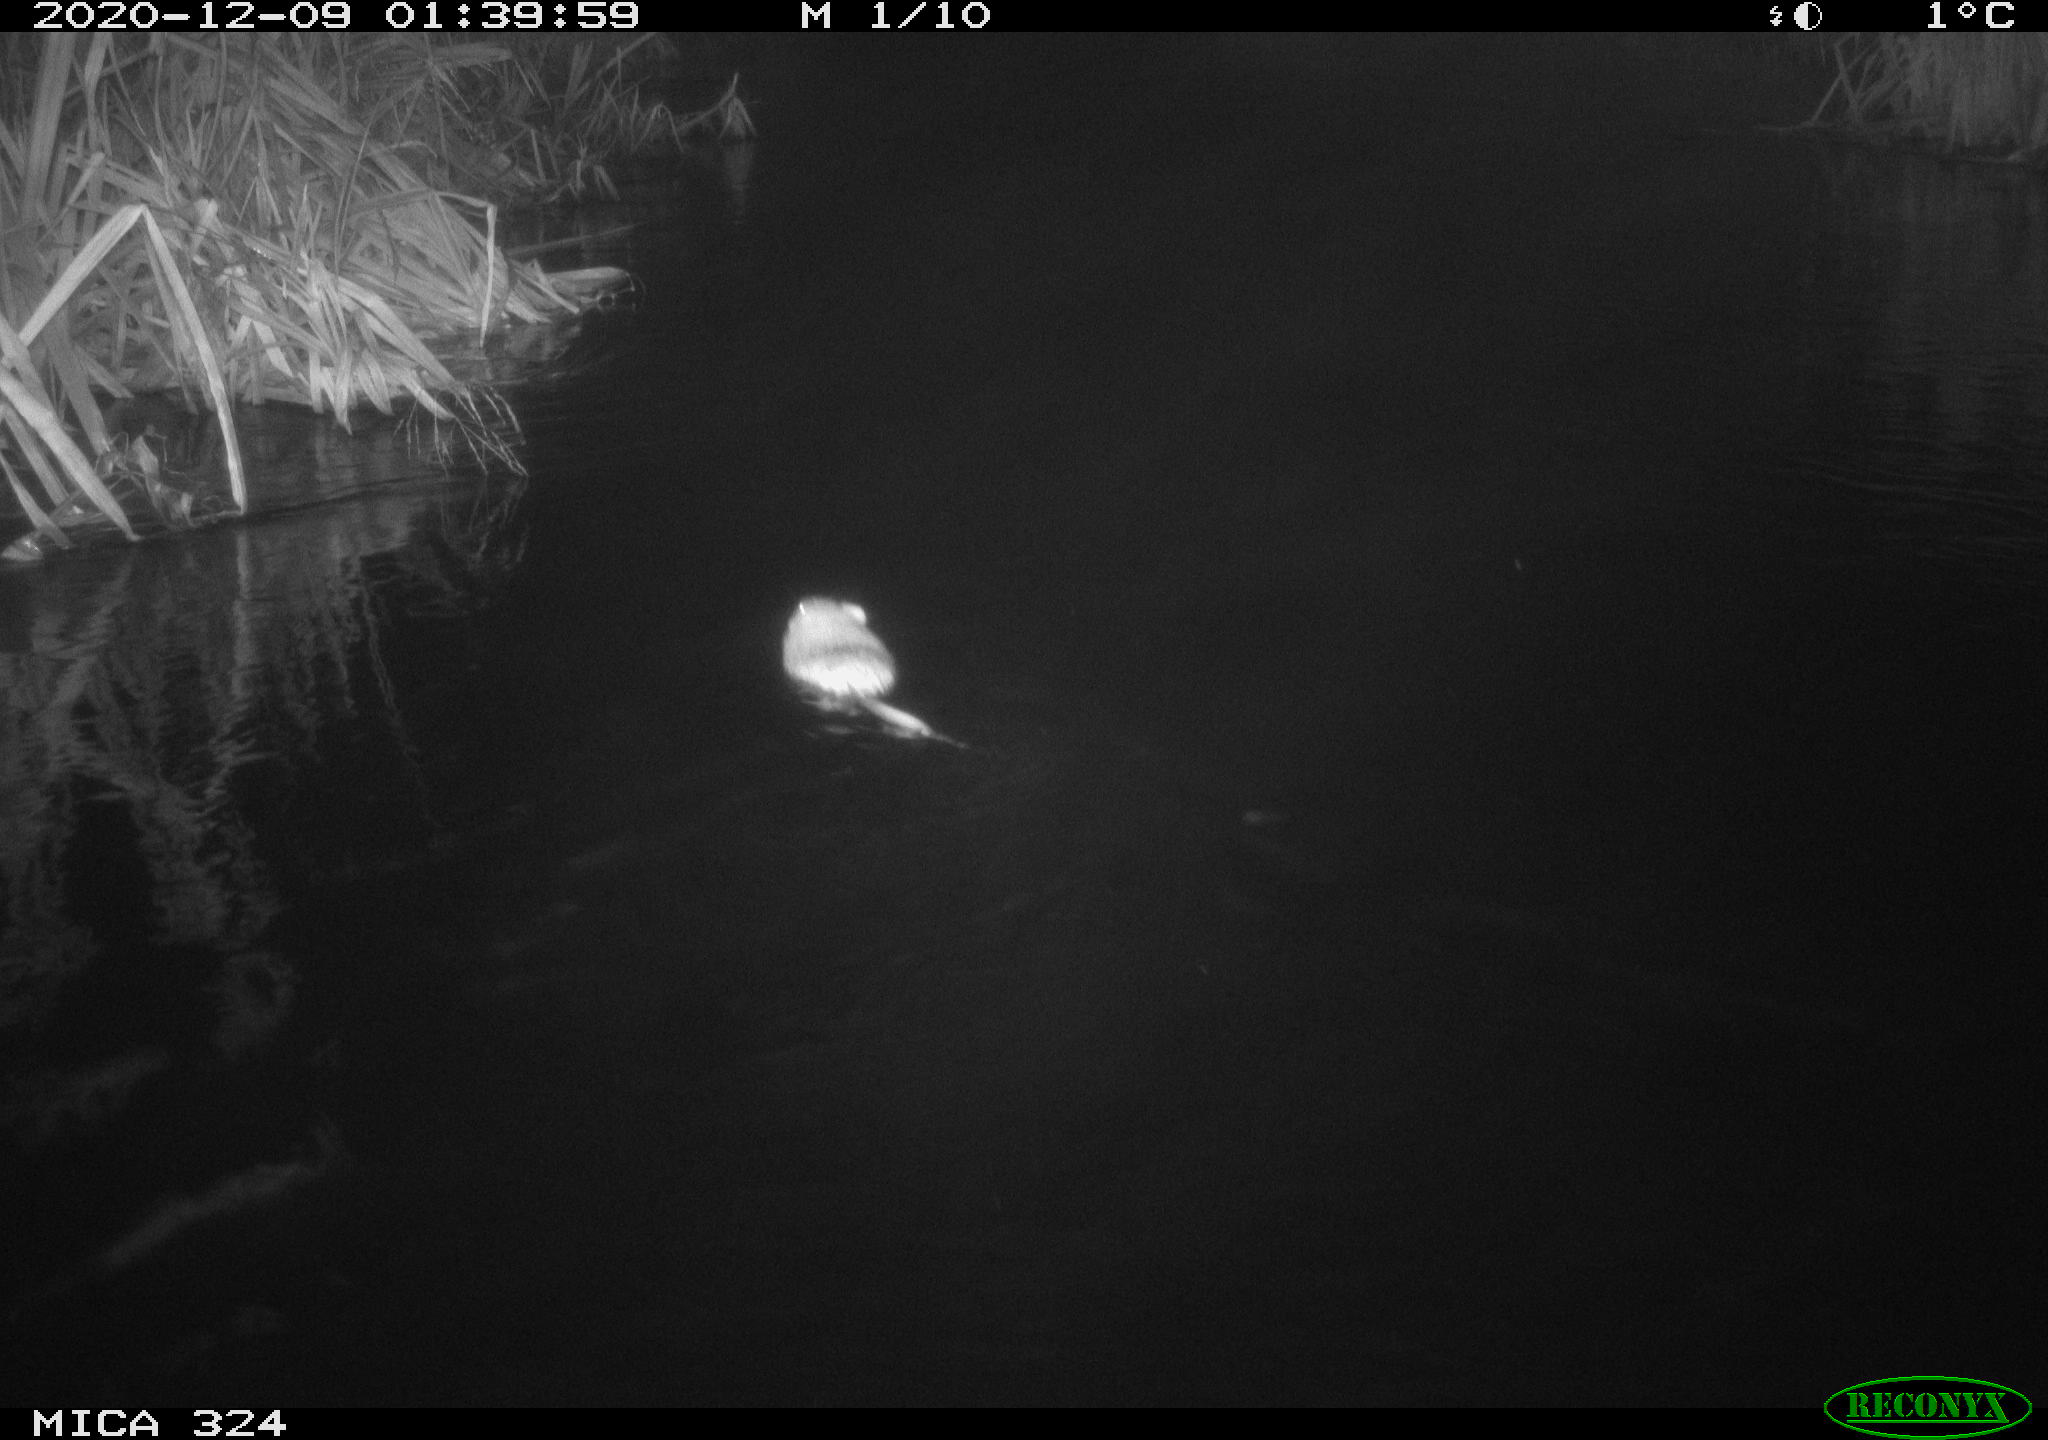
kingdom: Animalia
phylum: Chordata
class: Mammalia
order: Rodentia
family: Cricetidae
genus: Ondatra
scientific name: Ondatra zibethicus
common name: Muskrat
